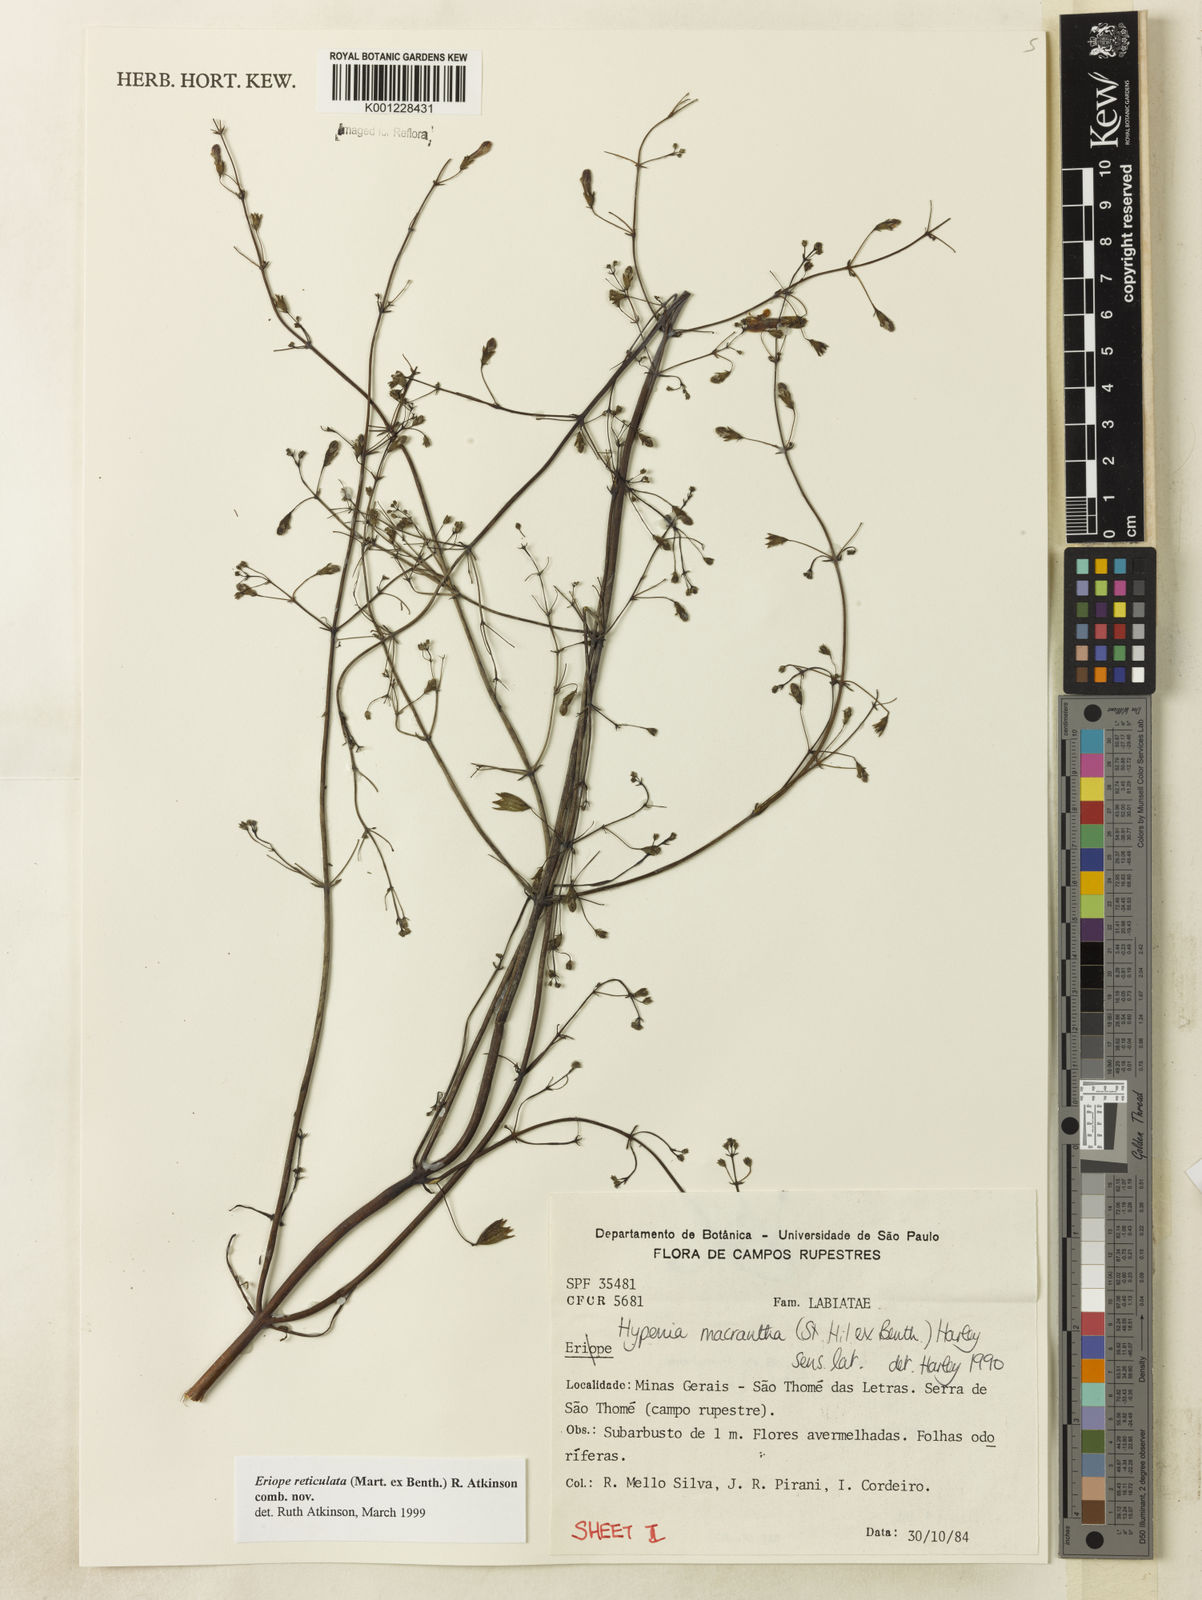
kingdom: Plantae
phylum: Tracheophyta
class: Magnoliopsida
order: Lamiales
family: Lamiaceae
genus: Hypenia
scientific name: Hypenia reticulata
